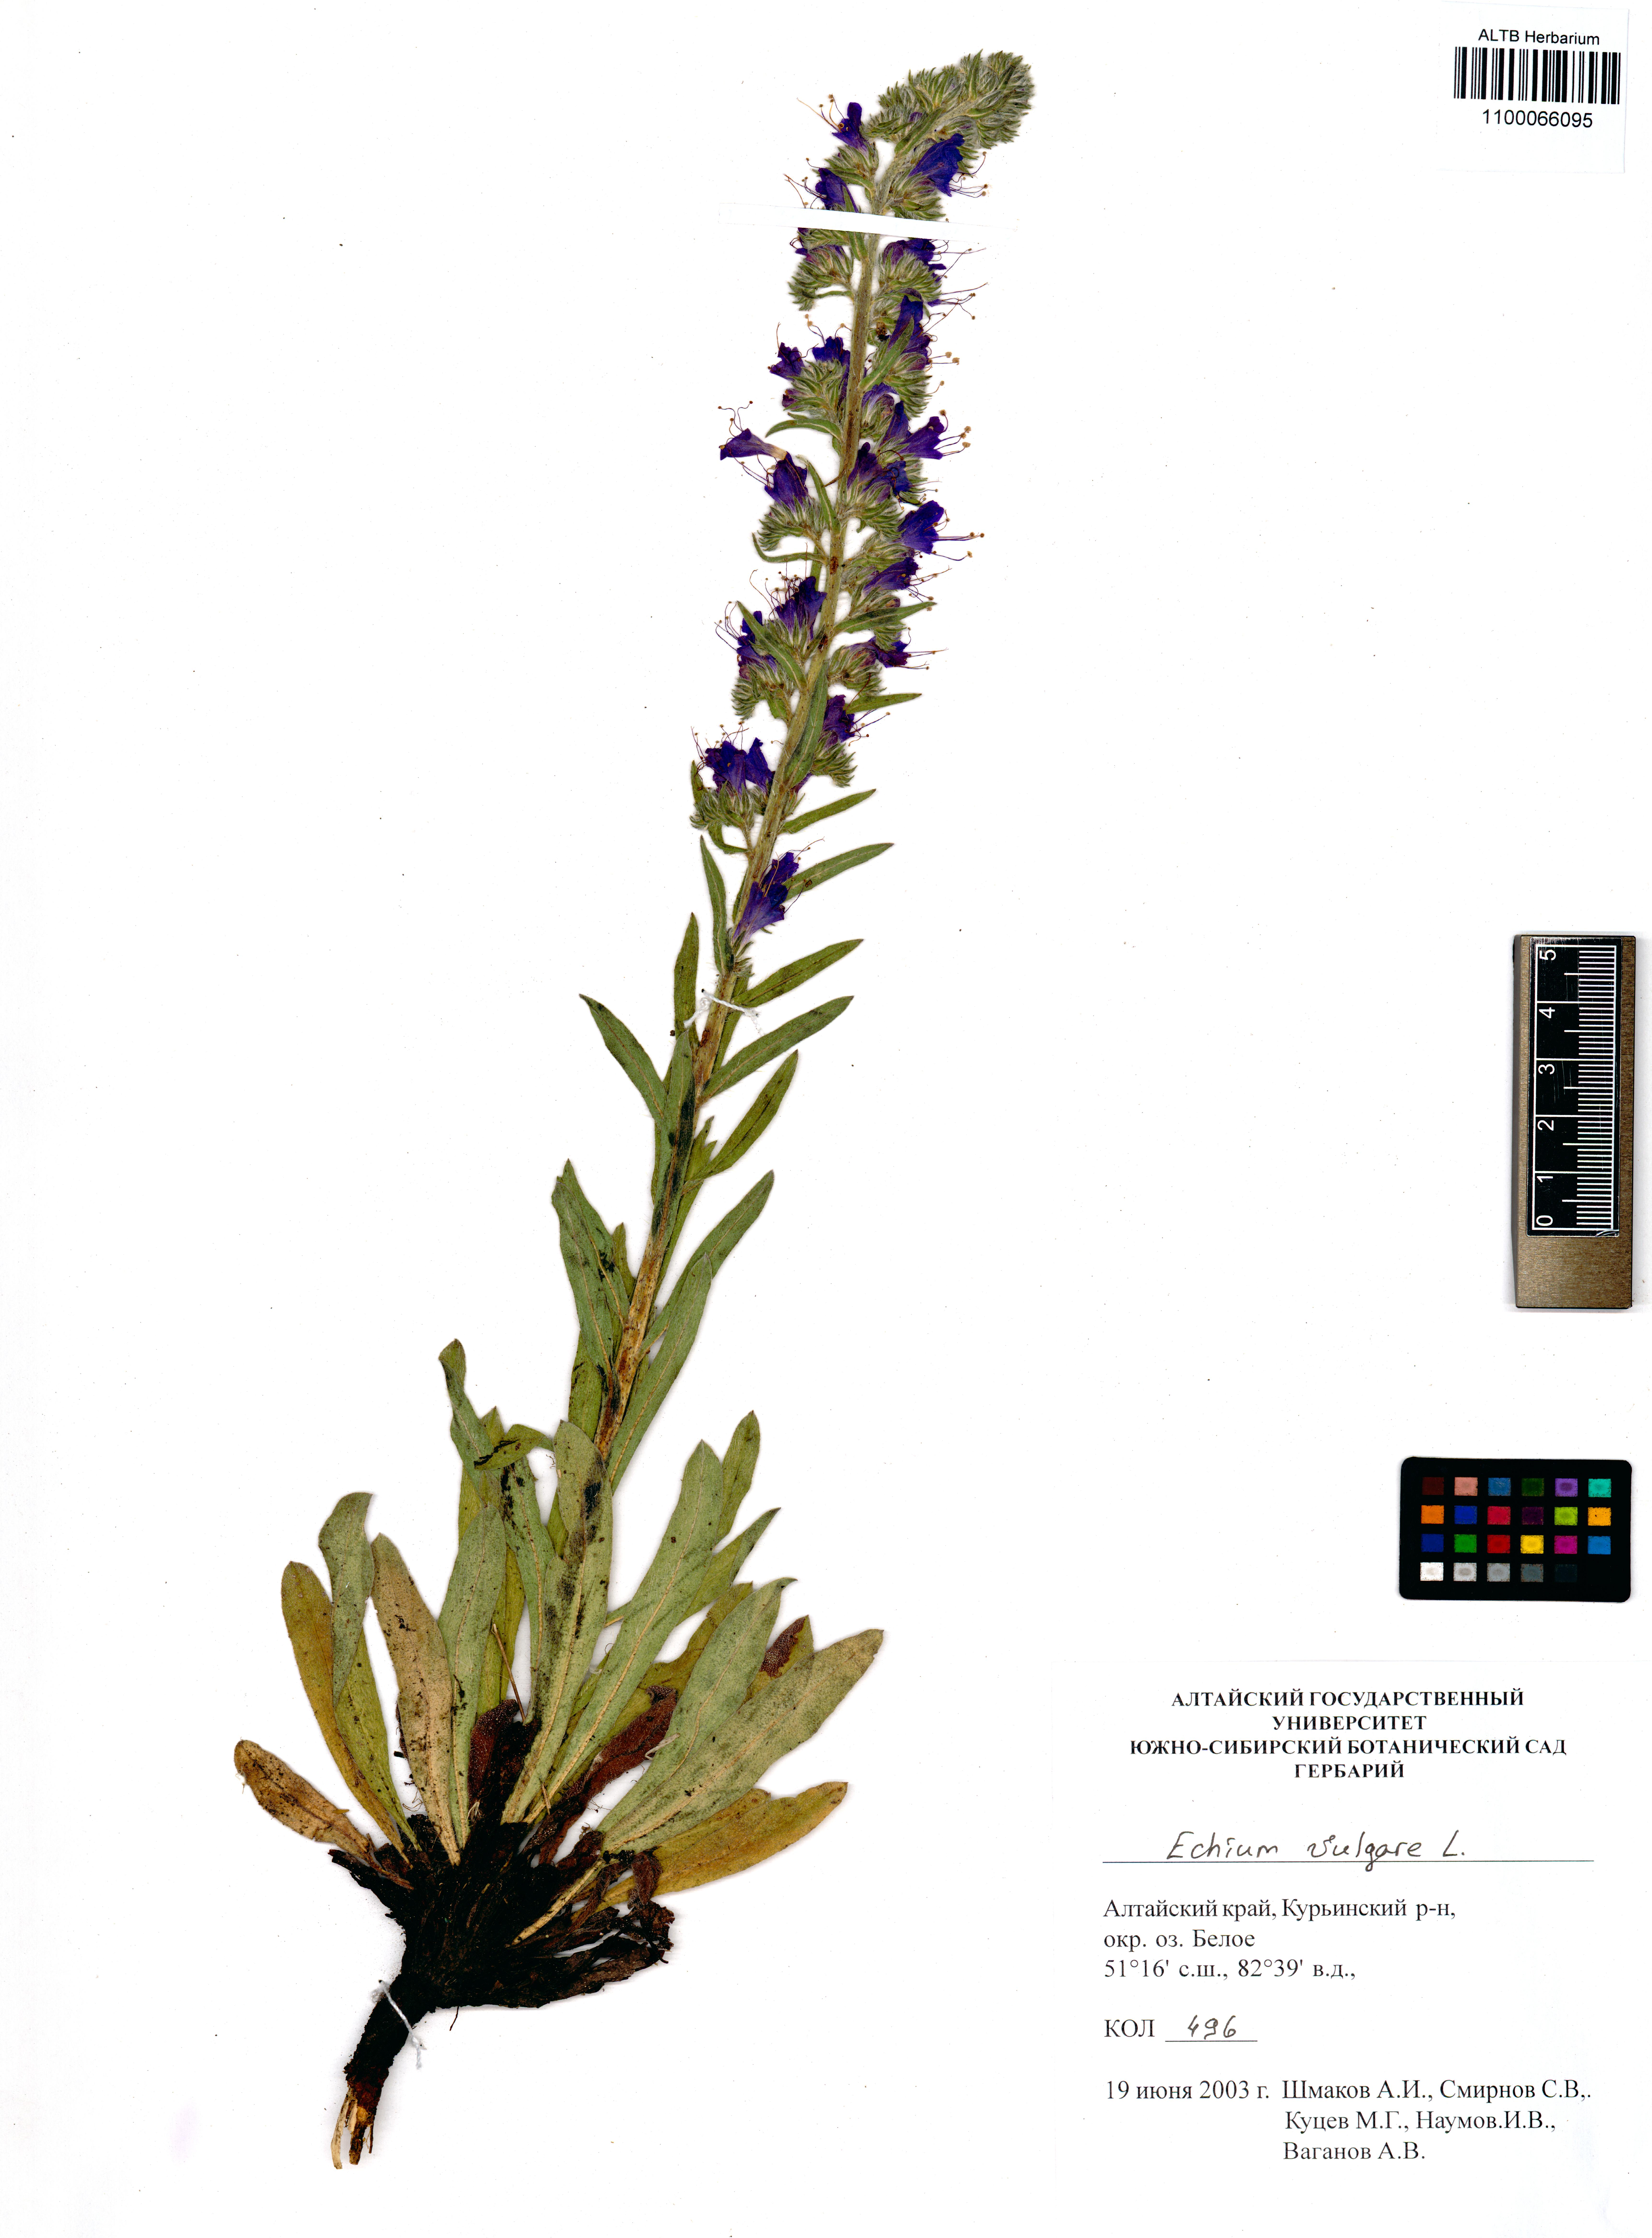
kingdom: Plantae
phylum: Tracheophyta
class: Magnoliopsida
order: Boraginales
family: Boraginaceae
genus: Echium
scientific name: Echium vulgare
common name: Common viper's bugloss
